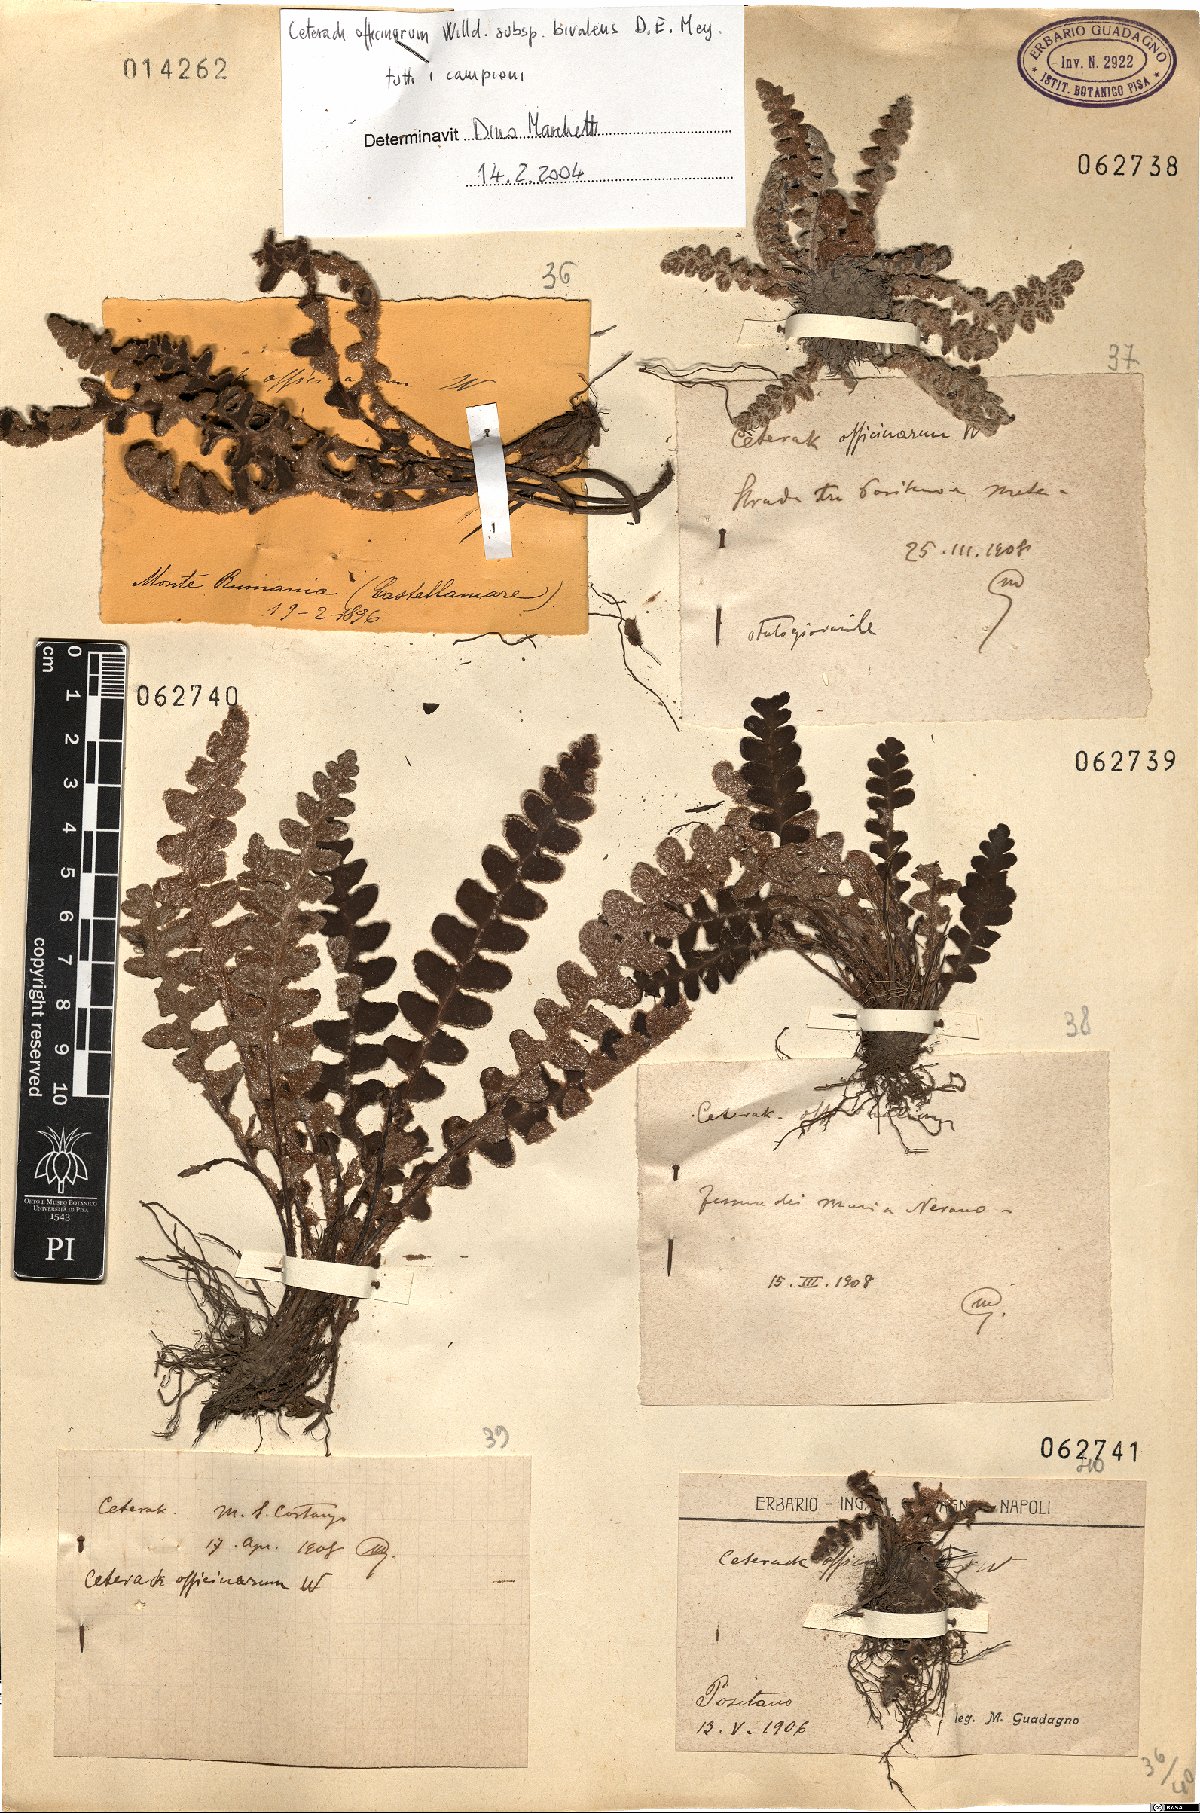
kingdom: Plantae
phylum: Tracheophyta
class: Polypodiopsida
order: Polypodiales
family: Aspleniaceae
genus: Asplenium
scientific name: Asplenium ceterach
